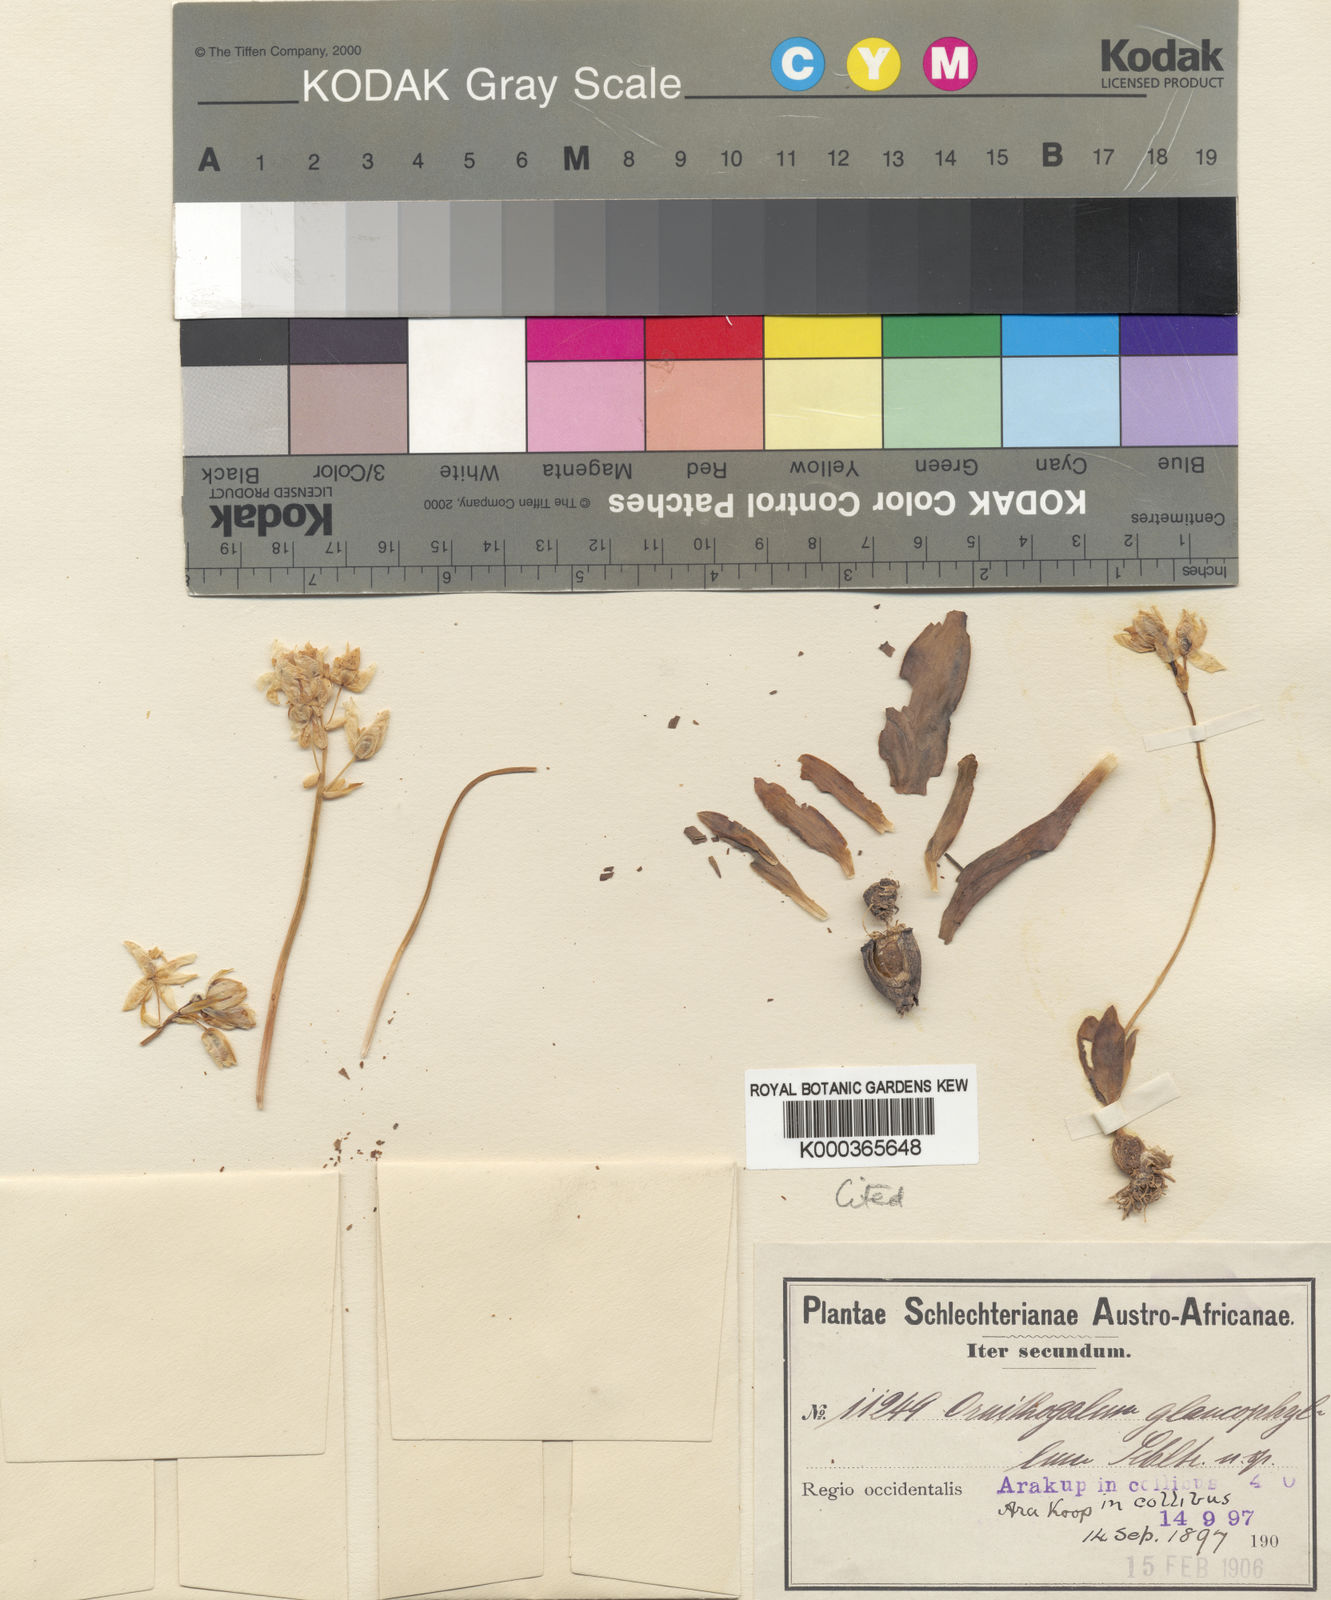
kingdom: Plantae
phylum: Tracheophyta
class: Liliopsida
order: Asparagales
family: Asparagaceae
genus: Ornithogalum
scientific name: Ornithogalum pruinosum
